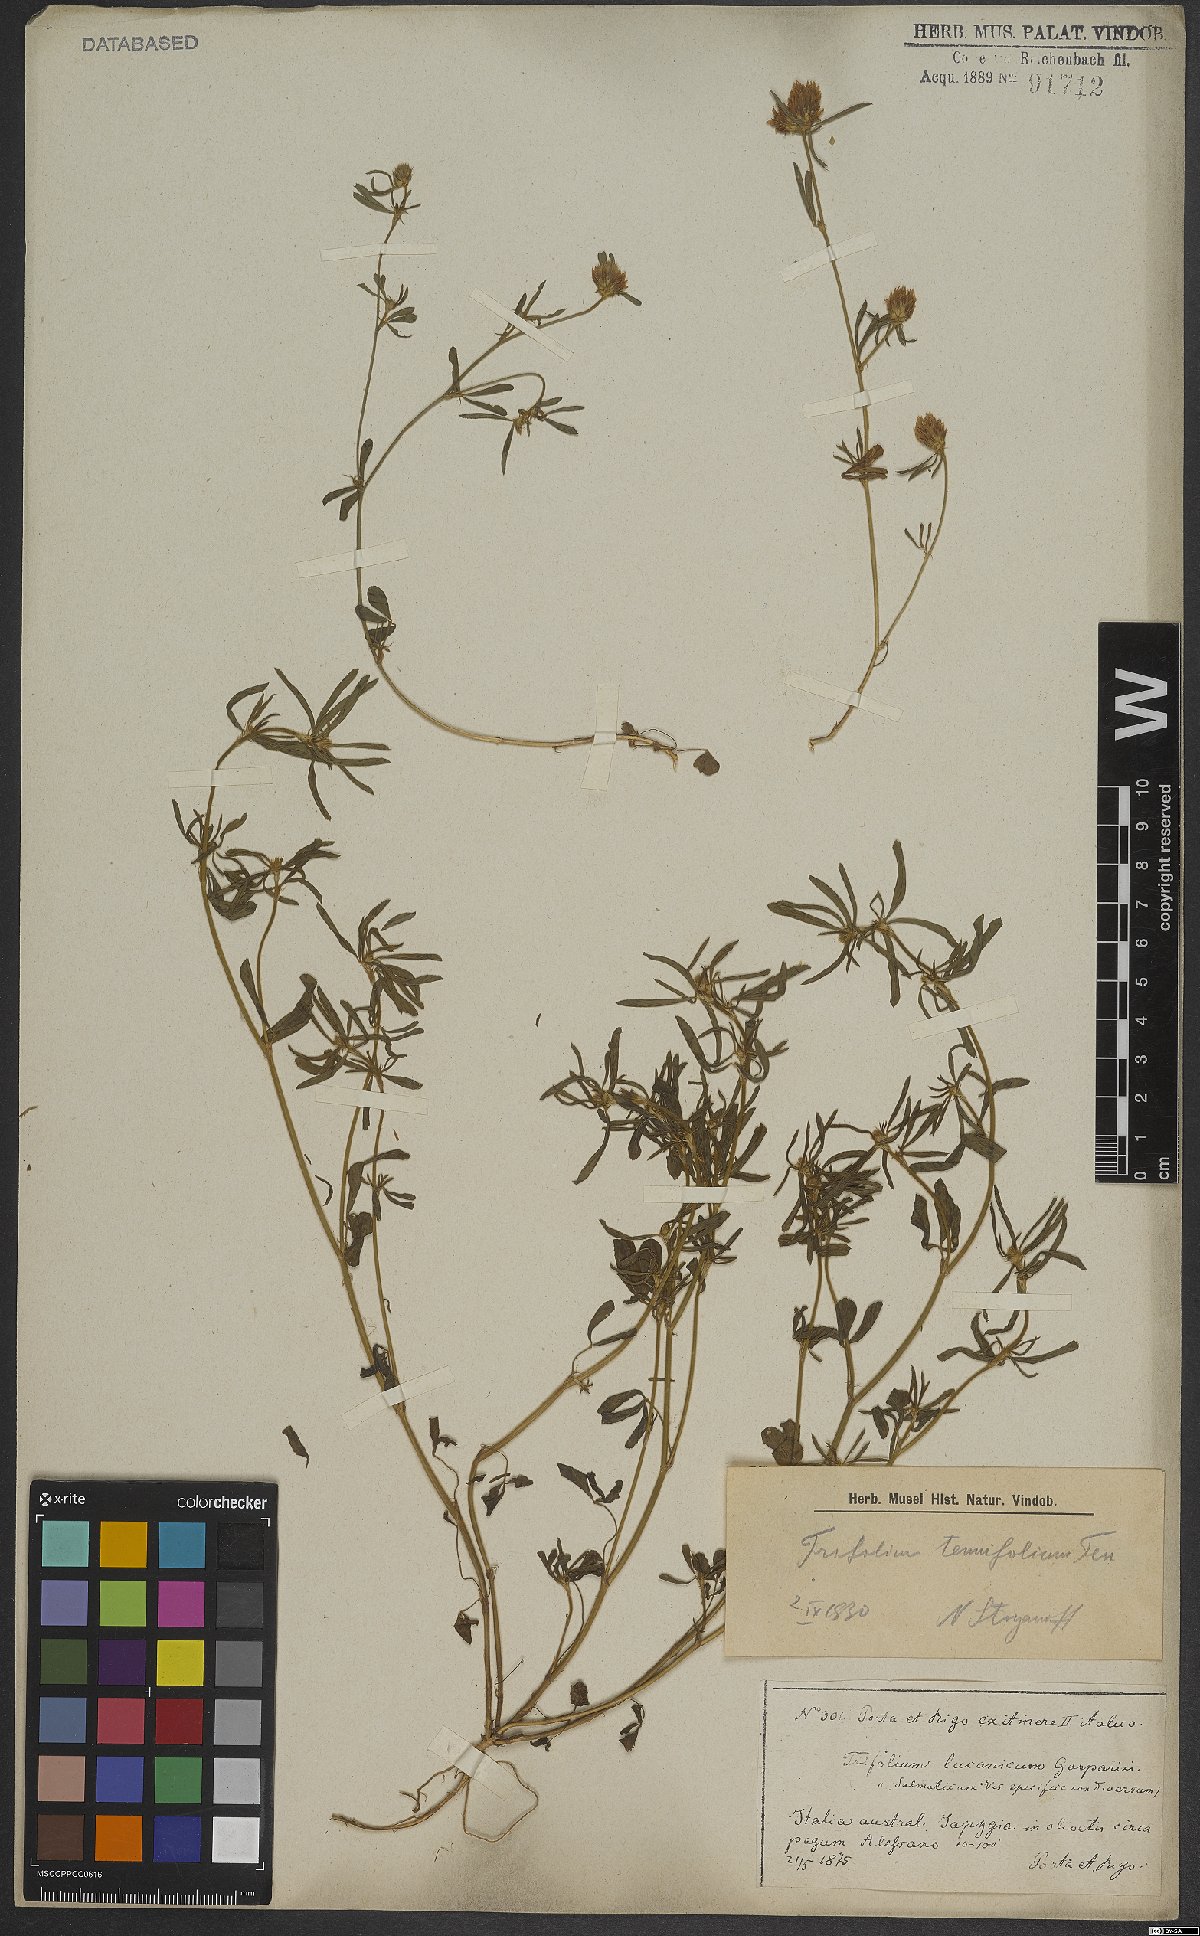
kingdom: Plantae
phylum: Tracheophyta
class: Magnoliopsida
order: Fabales
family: Fabaceae
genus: Trifolium
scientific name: Trifolium tenuifolium
